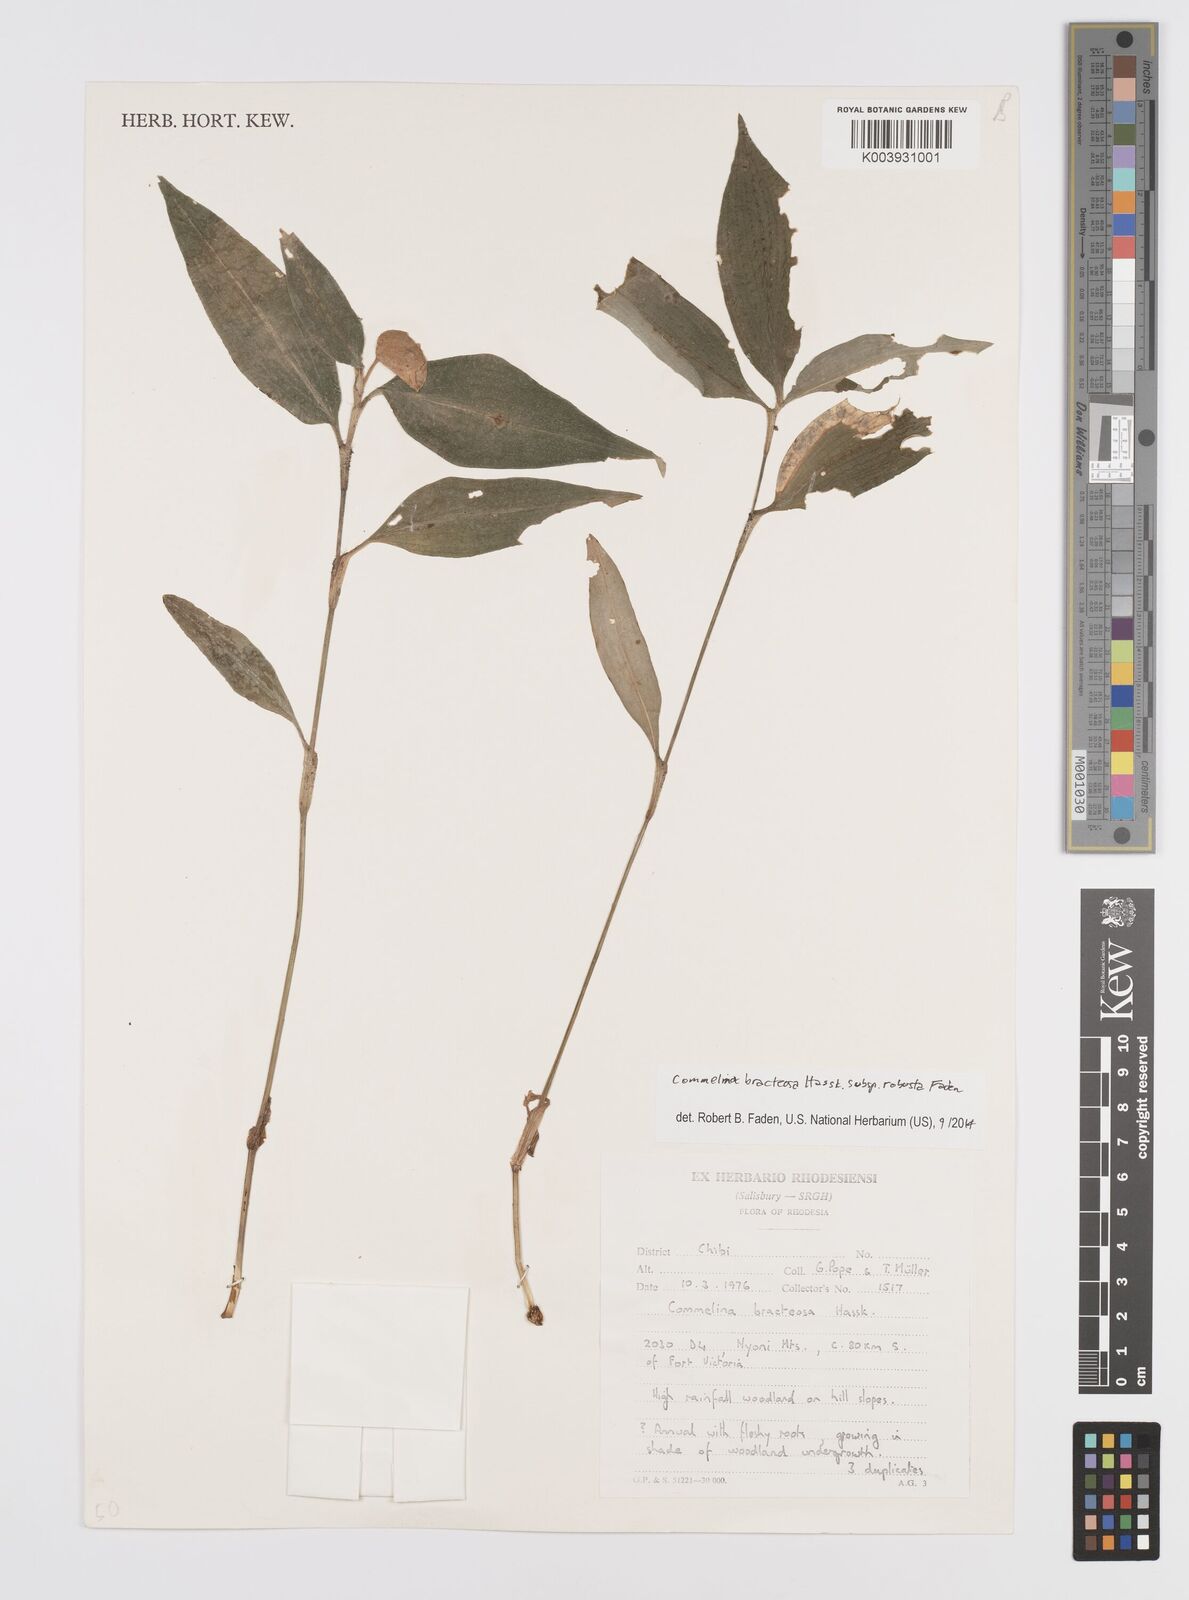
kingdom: Plantae
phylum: Tracheophyta
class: Liliopsida
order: Commelinales
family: Commelinaceae
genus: Commelina
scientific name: Commelina bracteosa
